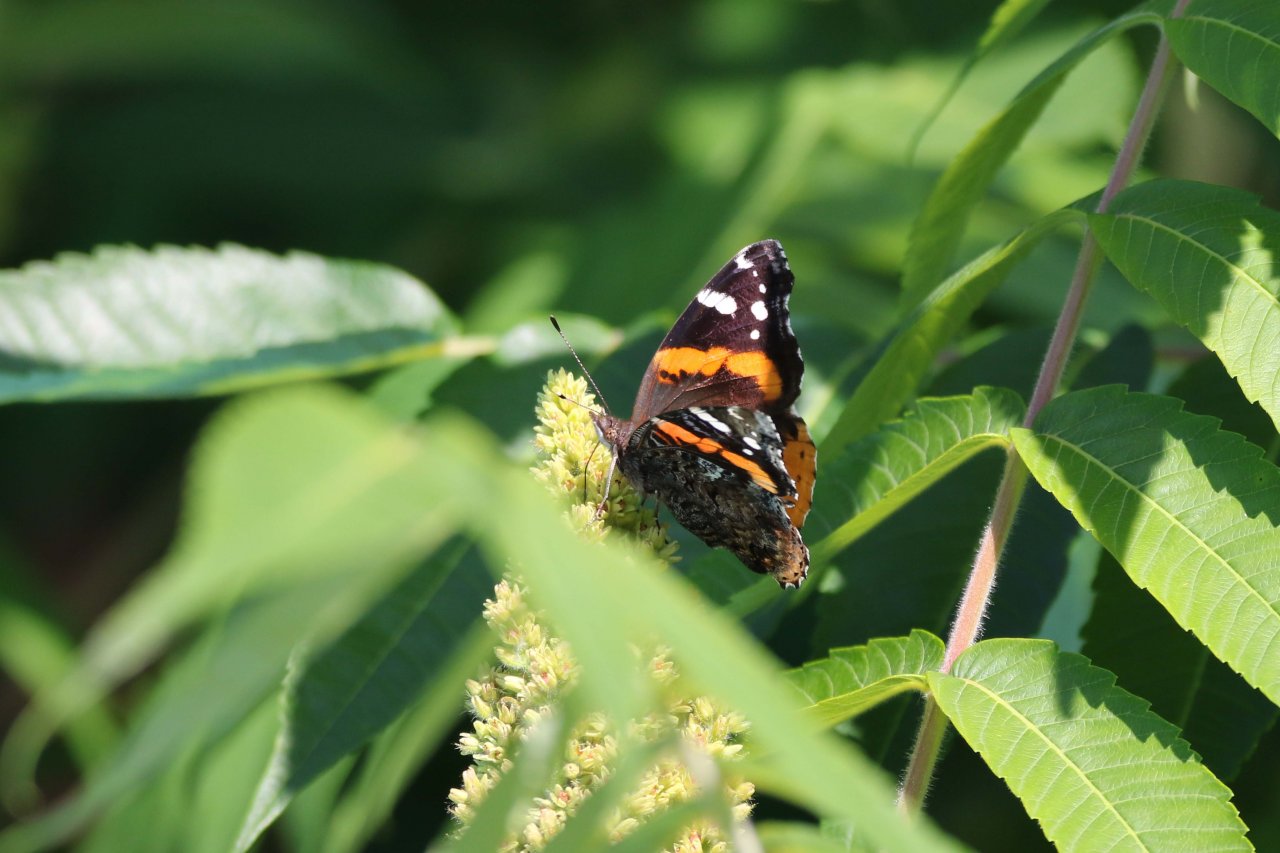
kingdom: Animalia
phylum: Arthropoda
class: Insecta
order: Lepidoptera
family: Nymphalidae
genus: Vanessa
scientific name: Vanessa atalanta
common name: Red Admiral
